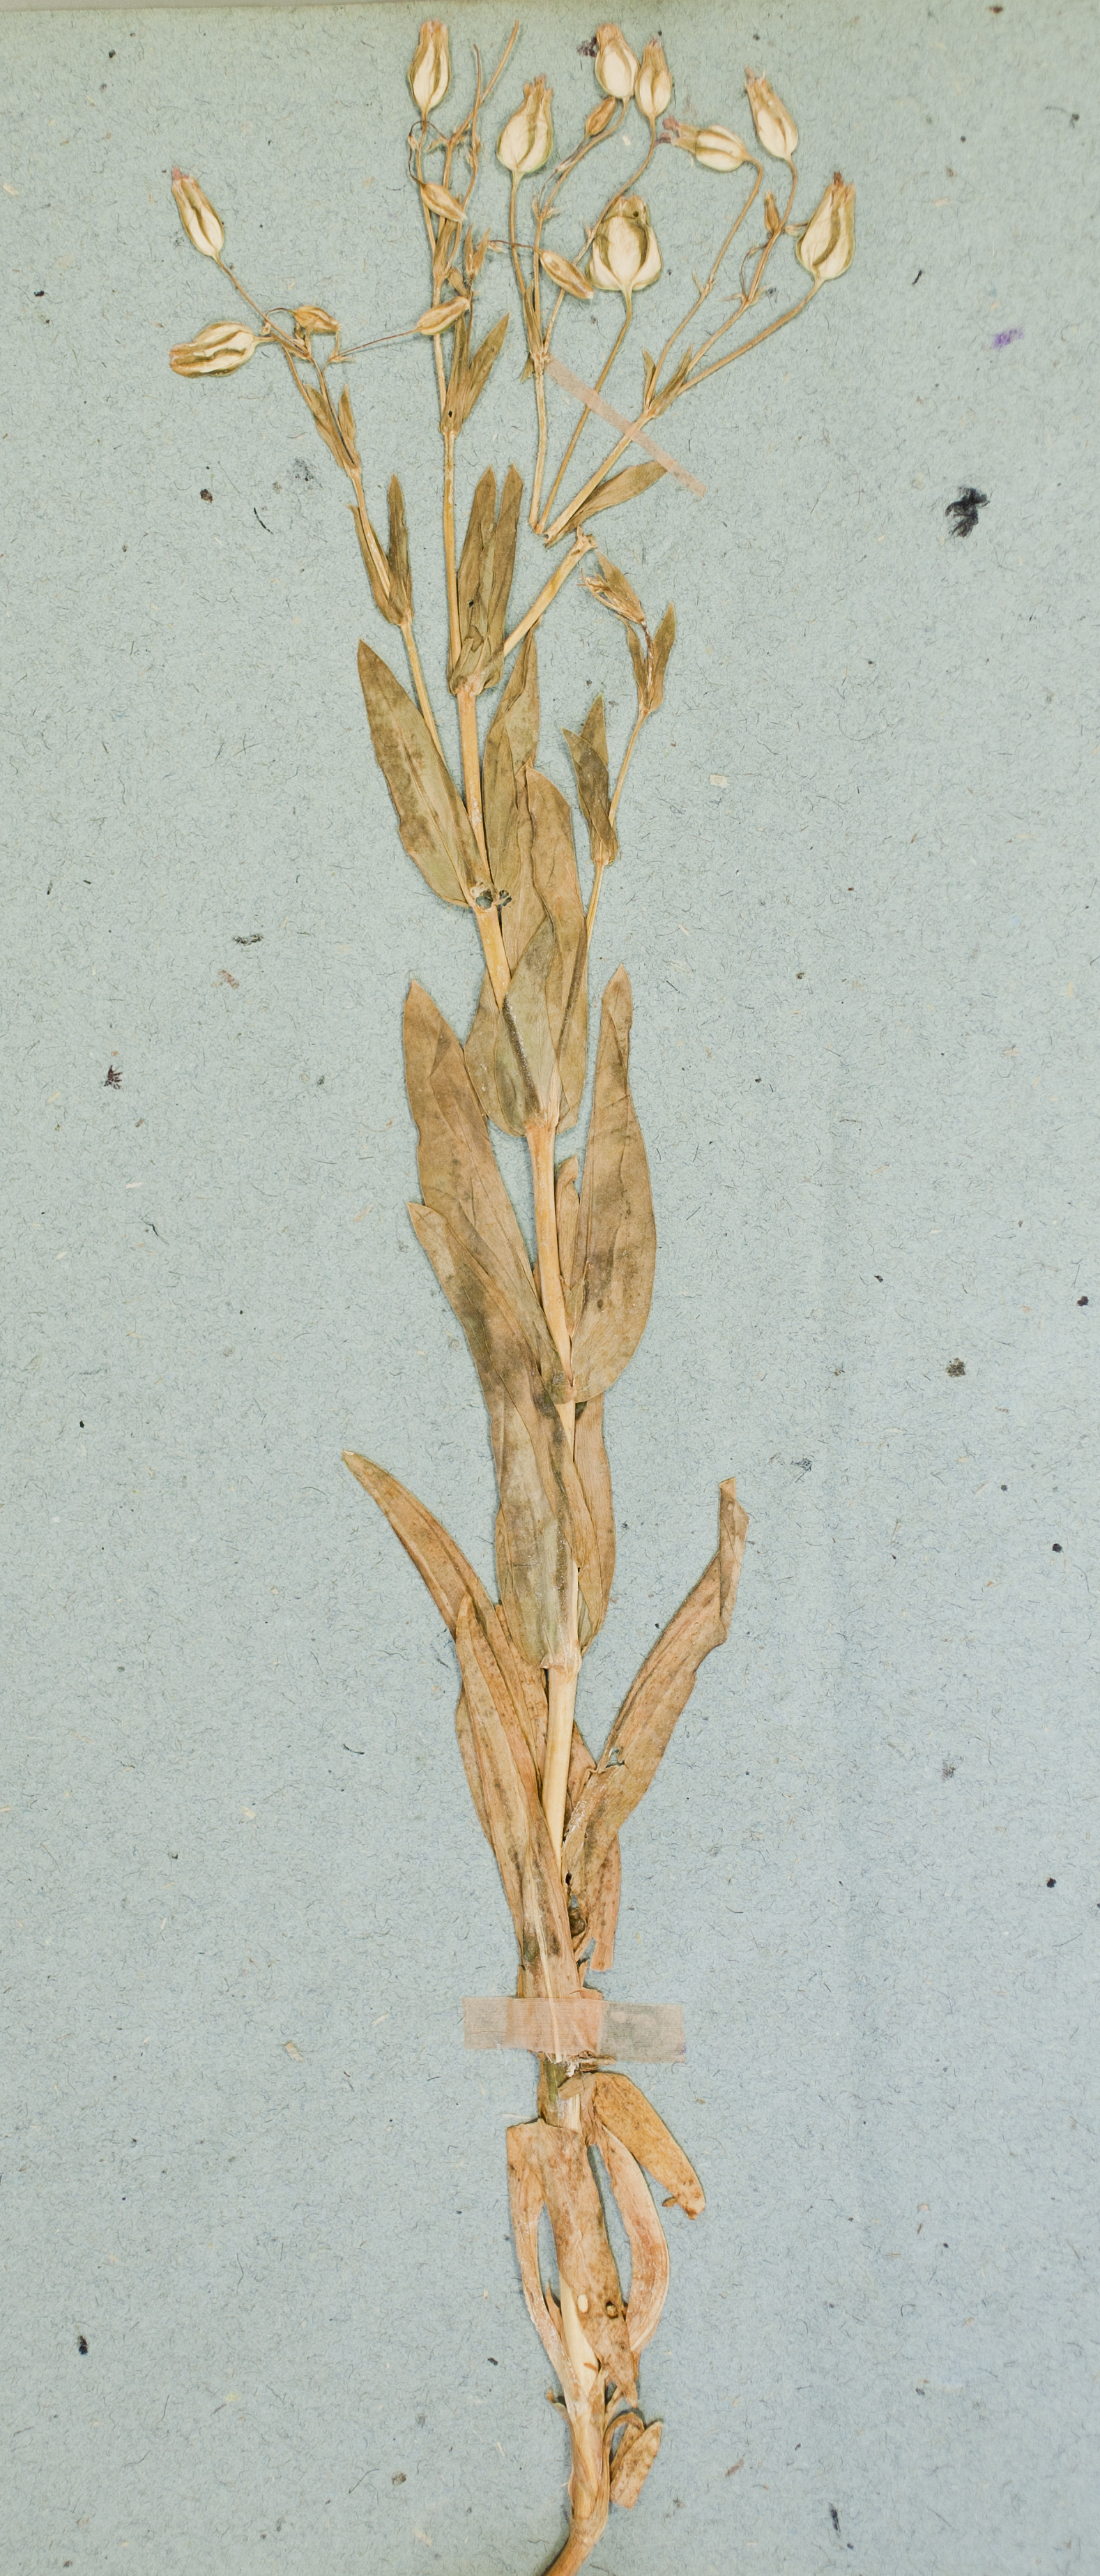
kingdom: Plantae
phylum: Tracheophyta
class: Magnoliopsida
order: Caryophyllales
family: Caryophyllaceae
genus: Gypsophila
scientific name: Gypsophila vaccaria
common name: Cow soapwort
